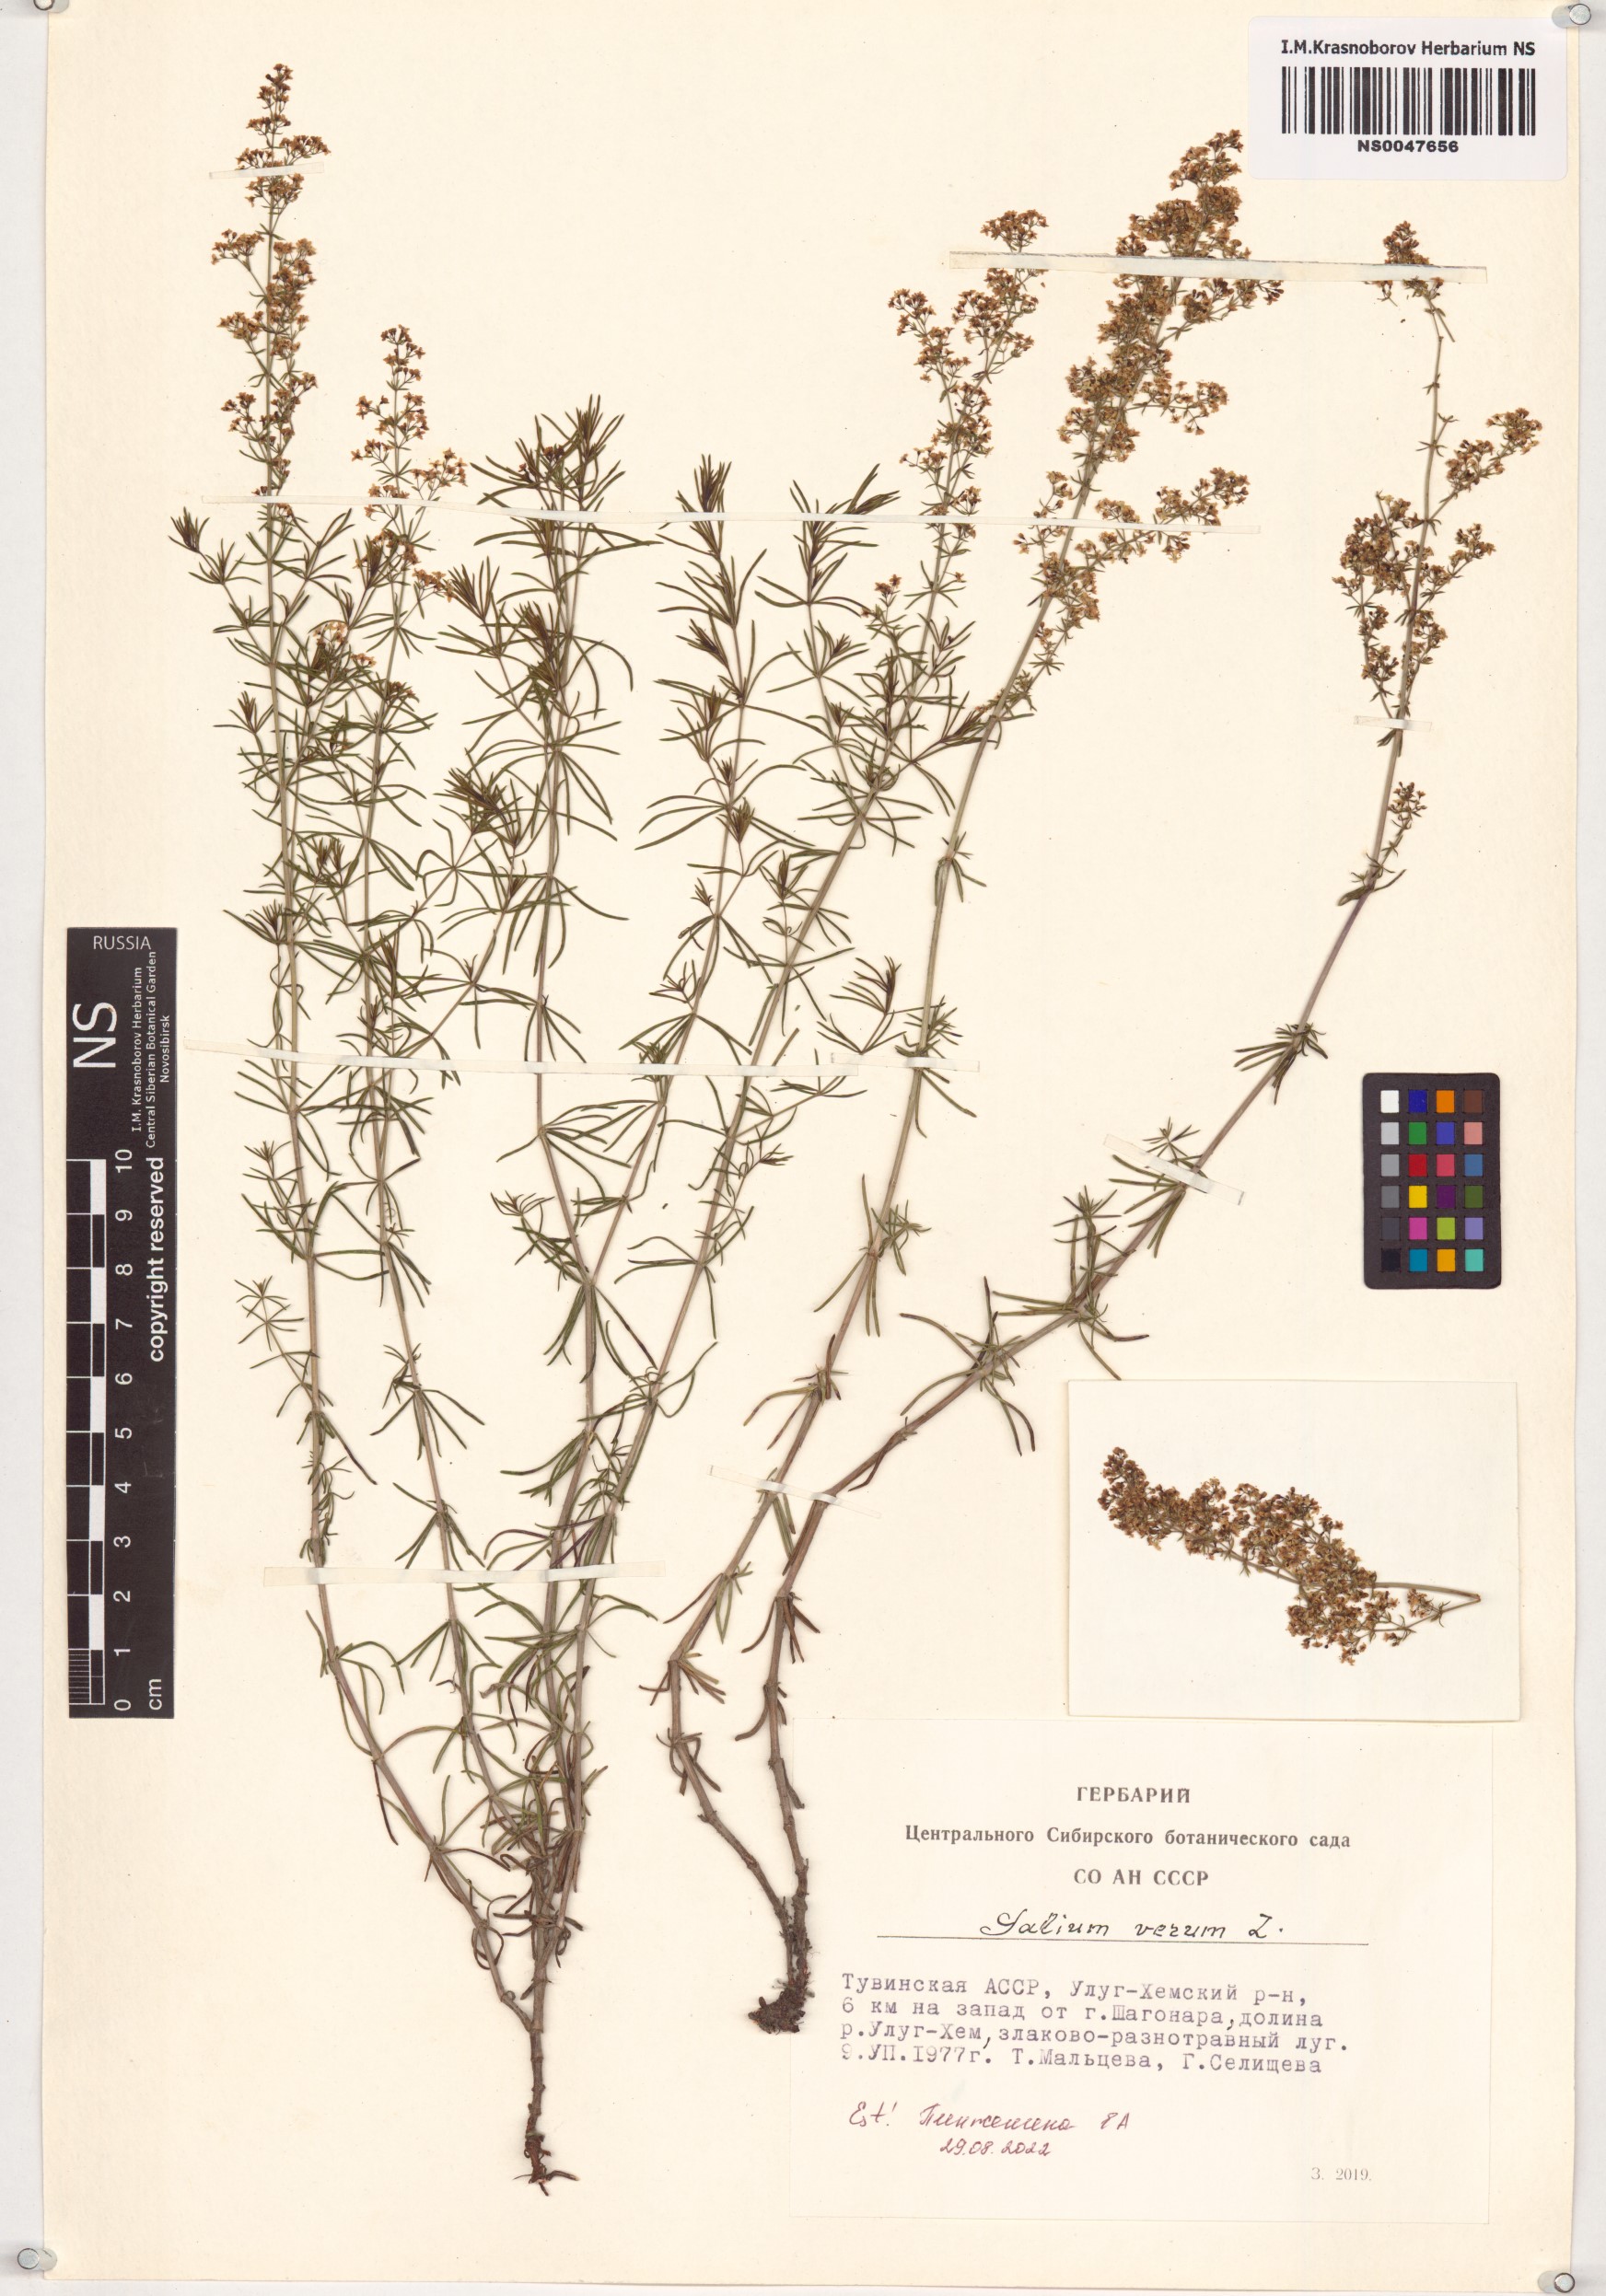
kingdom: Plantae
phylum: Tracheophyta
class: Magnoliopsida
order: Gentianales
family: Rubiaceae
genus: Galium
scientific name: Galium verum
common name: Lady's bedstraw
